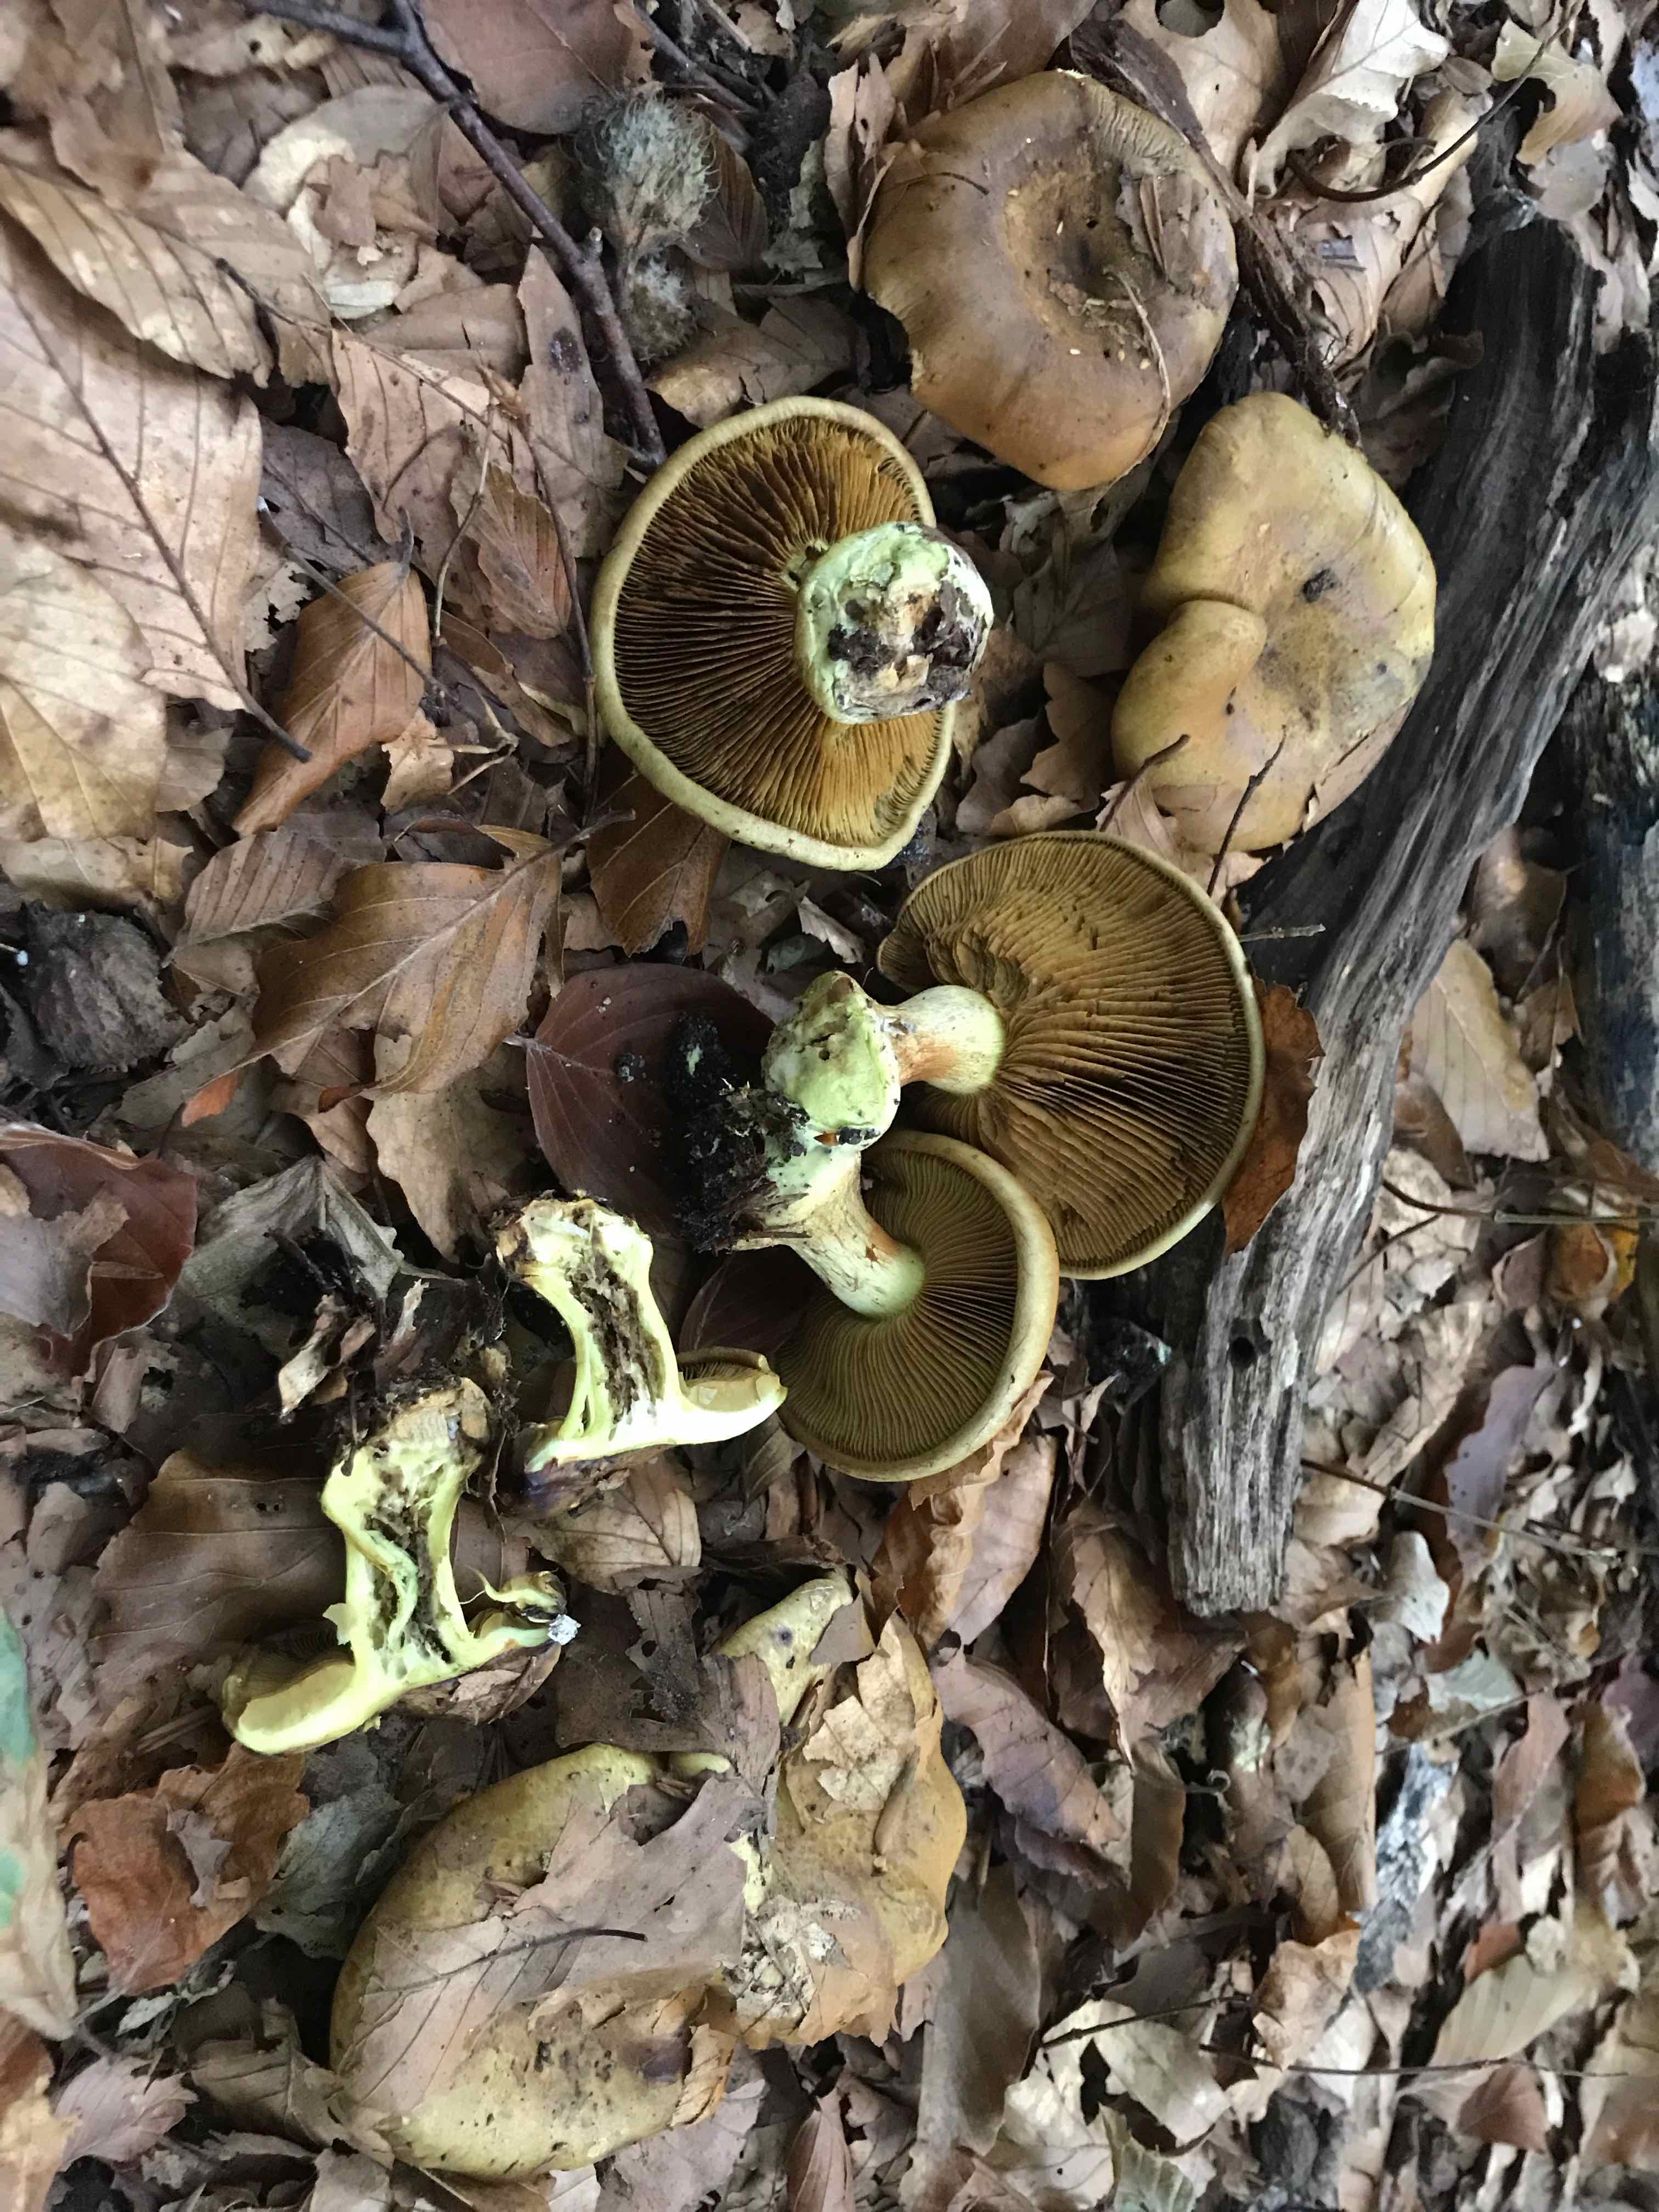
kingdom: Fungi
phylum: Basidiomycota
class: Agaricomycetes
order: Agaricales
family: Cortinariaceae
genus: Calonarius
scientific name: Calonarius citrinus
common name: citrongul slørhat
